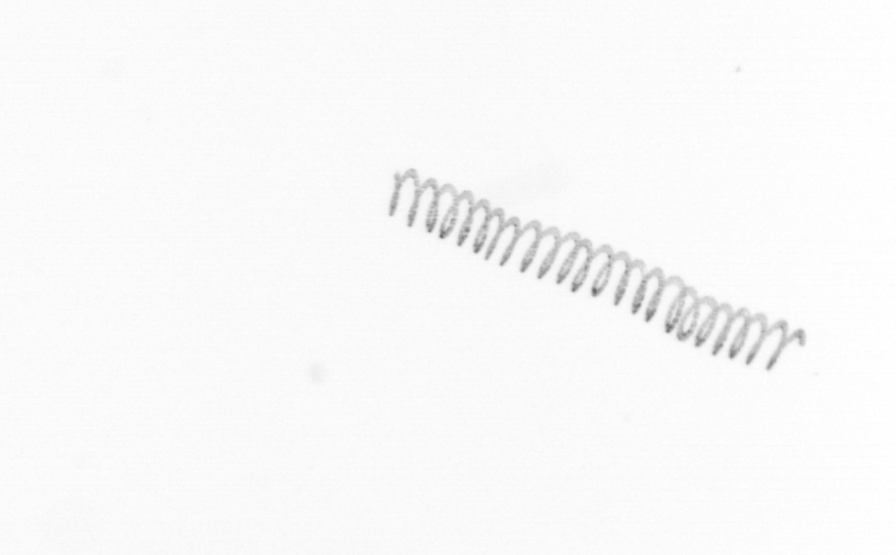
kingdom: Chromista
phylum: Ochrophyta
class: Bacillariophyceae
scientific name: Bacillariophyceae
